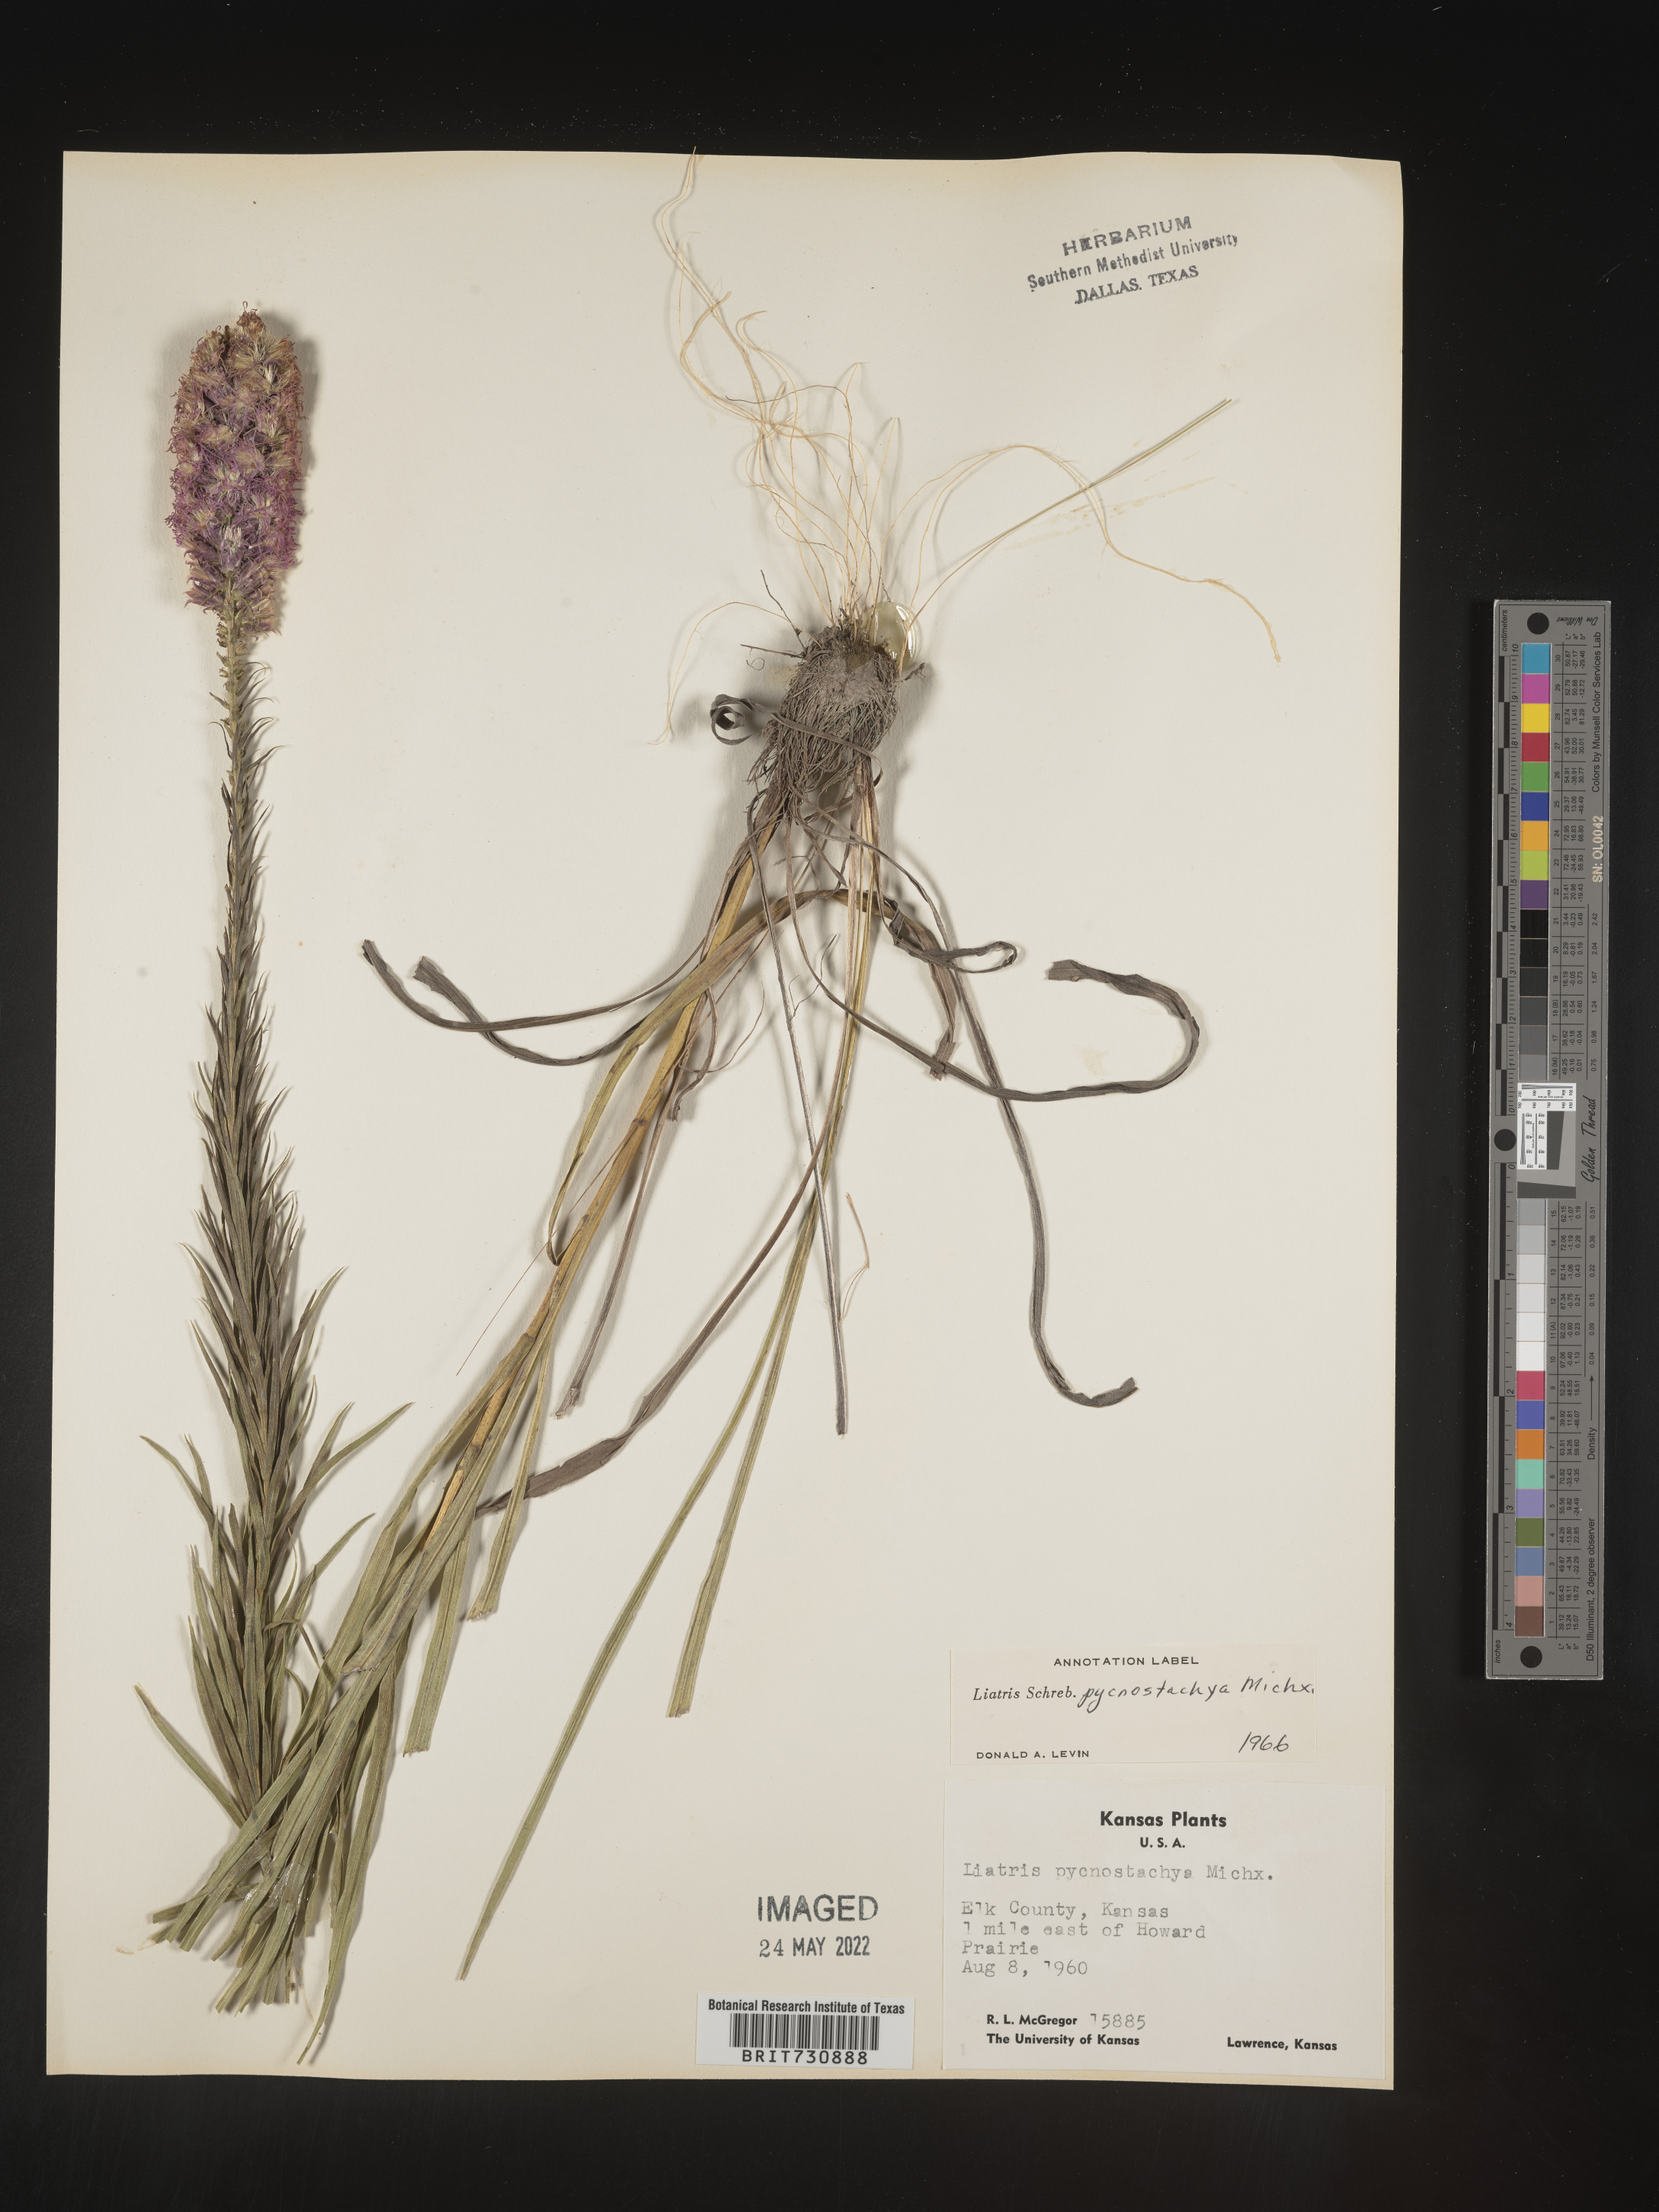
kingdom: Plantae
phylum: Tracheophyta
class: Magnoliopsida
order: Asterales
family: Asteraceae
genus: Liatris
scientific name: Liatris pycnostachya
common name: Cattail gayfeather
